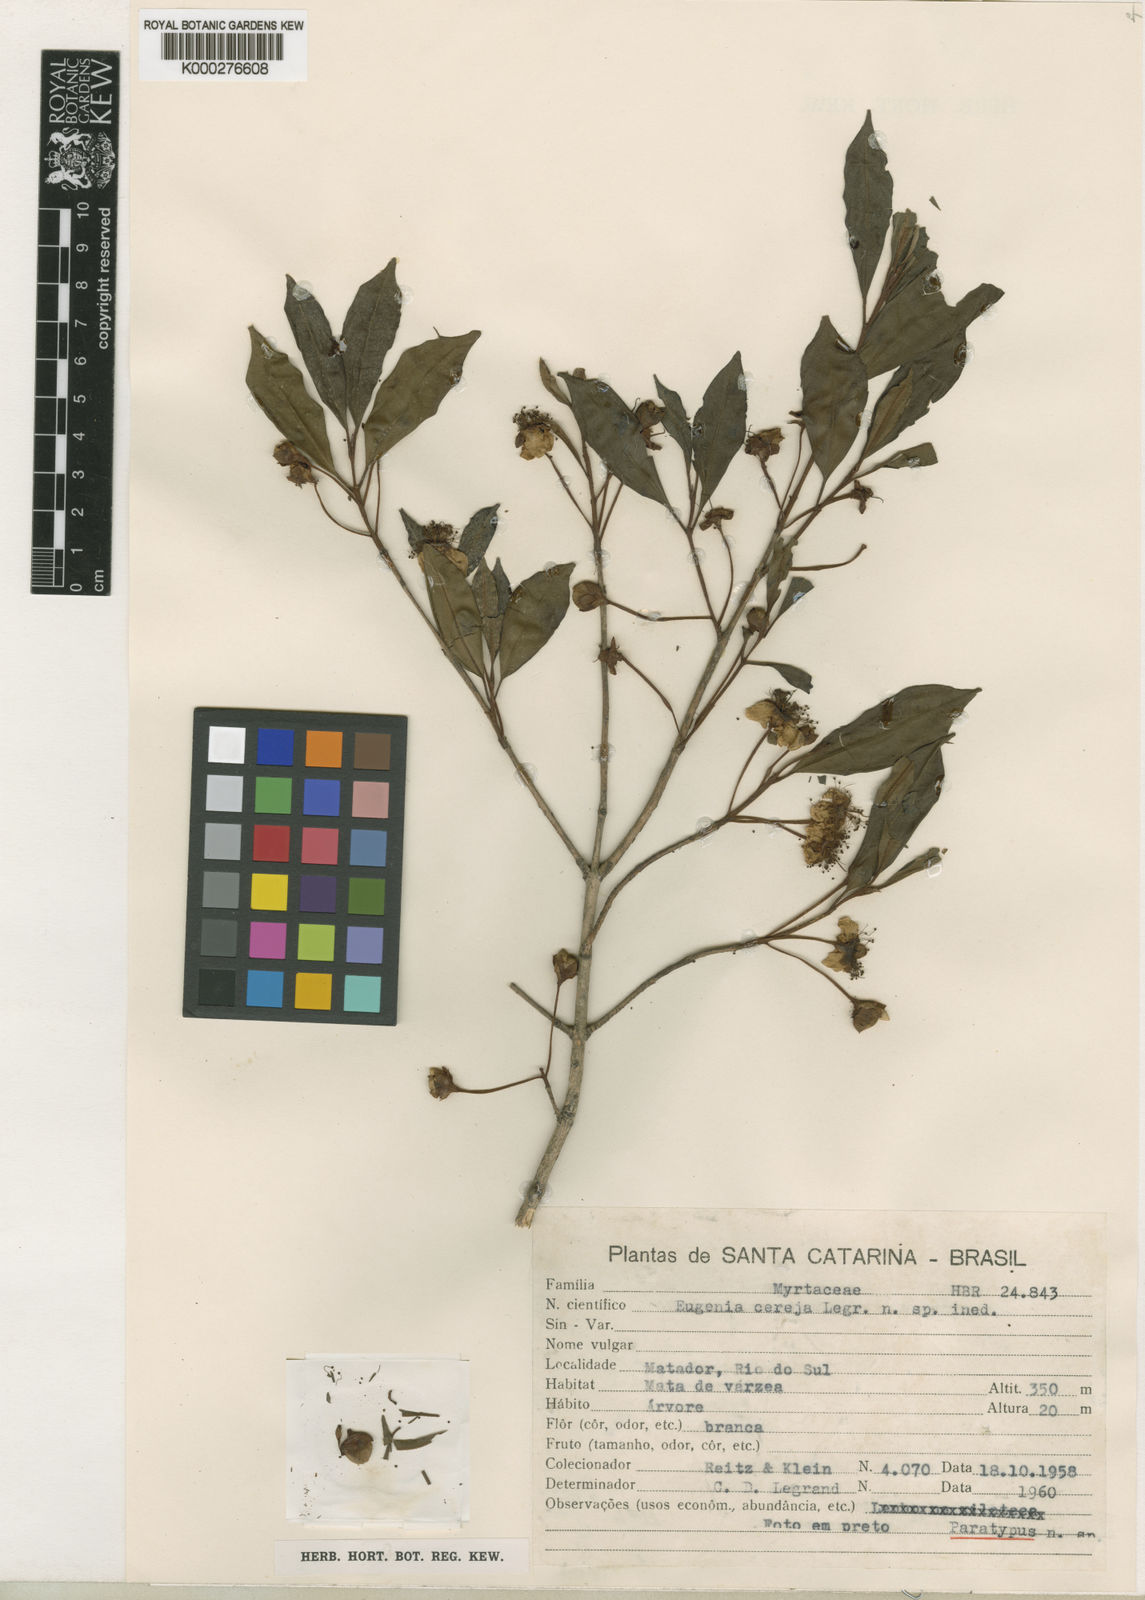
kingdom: Plantae
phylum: Tracheophyta
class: Magnoliopsida
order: Myrtales
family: Myrtaceae
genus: Eugenia
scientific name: Eugenia cereja
